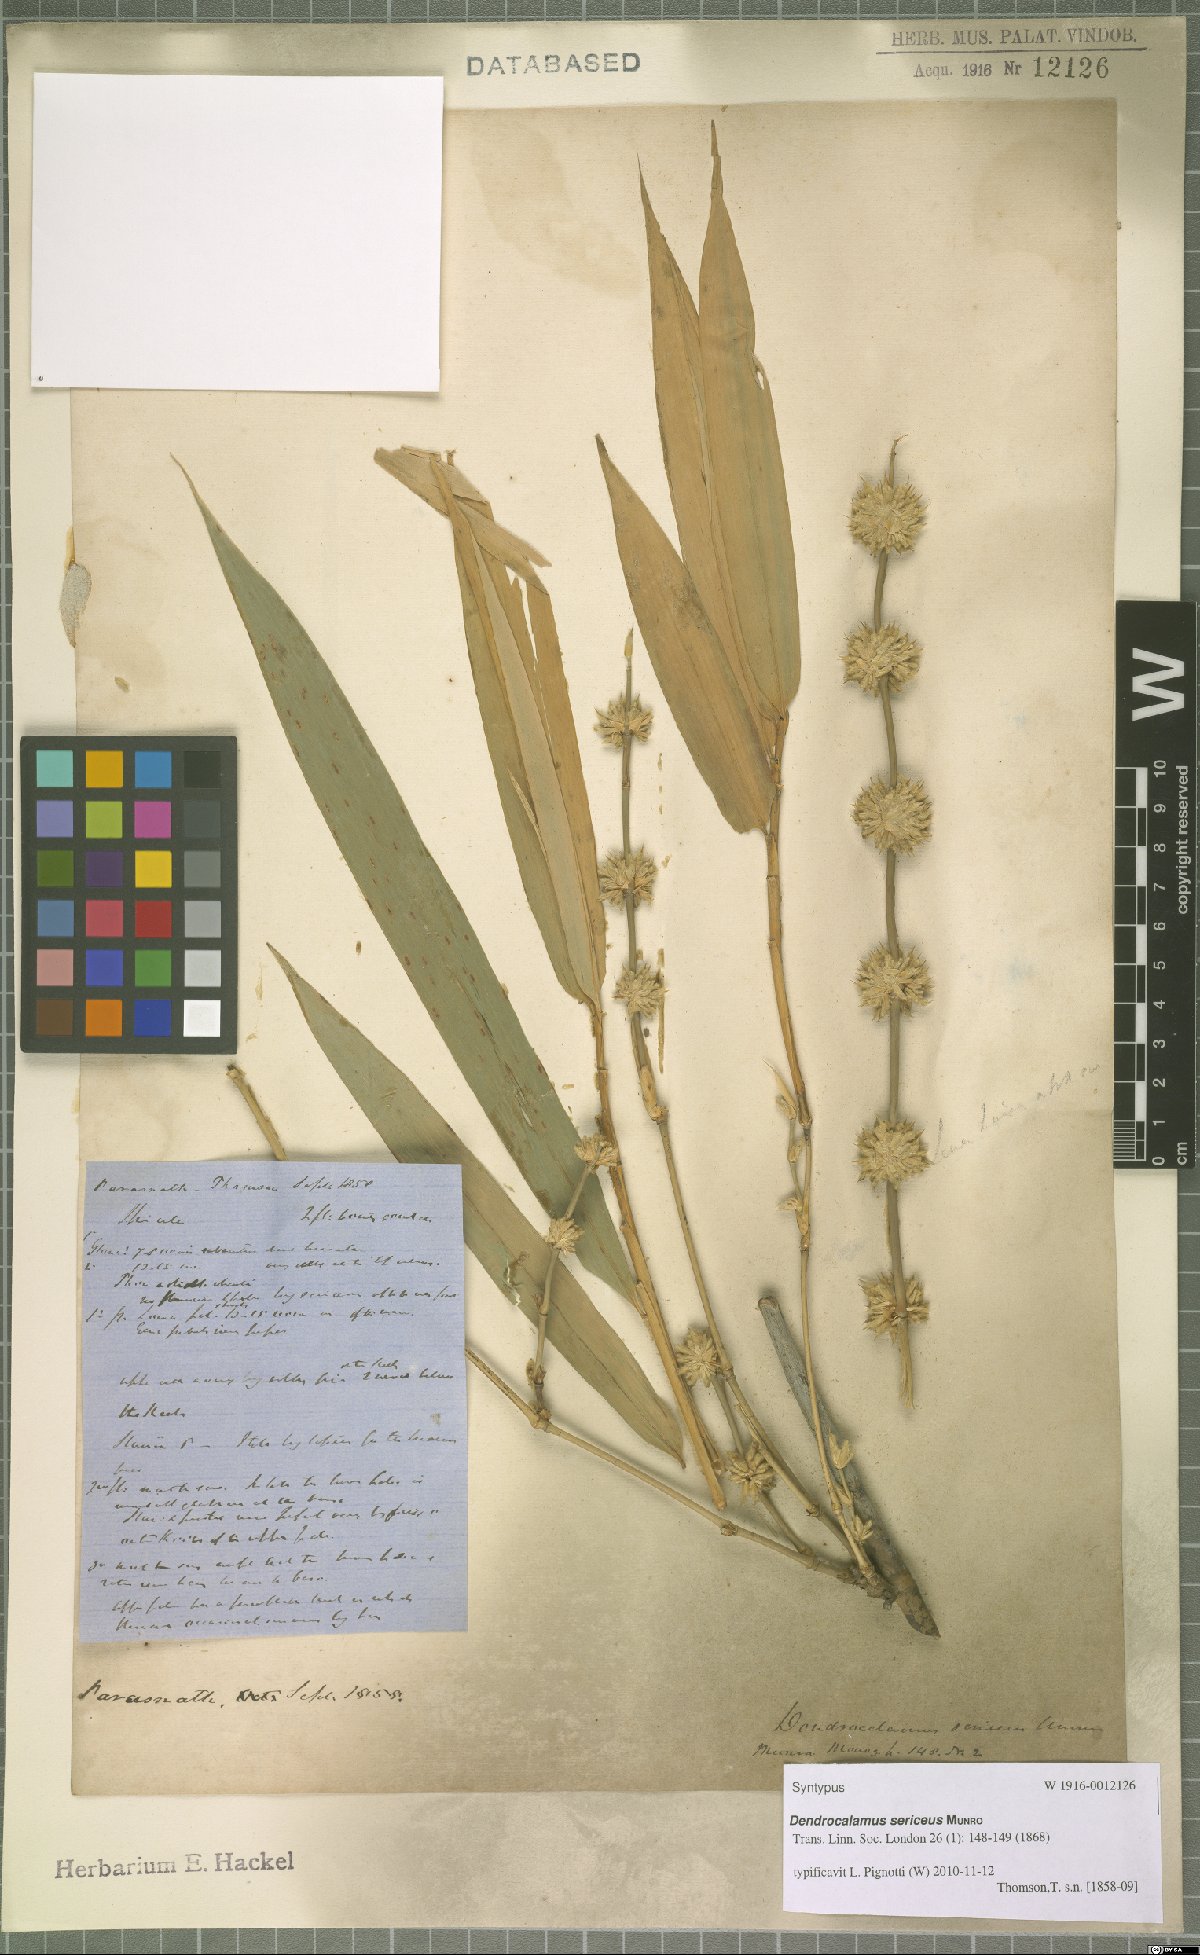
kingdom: Plantae
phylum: Tracheophyta
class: Liliopsida
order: Poales
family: Poaceae
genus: Dendrocalamus
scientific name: Dendrocalamus sericeus
